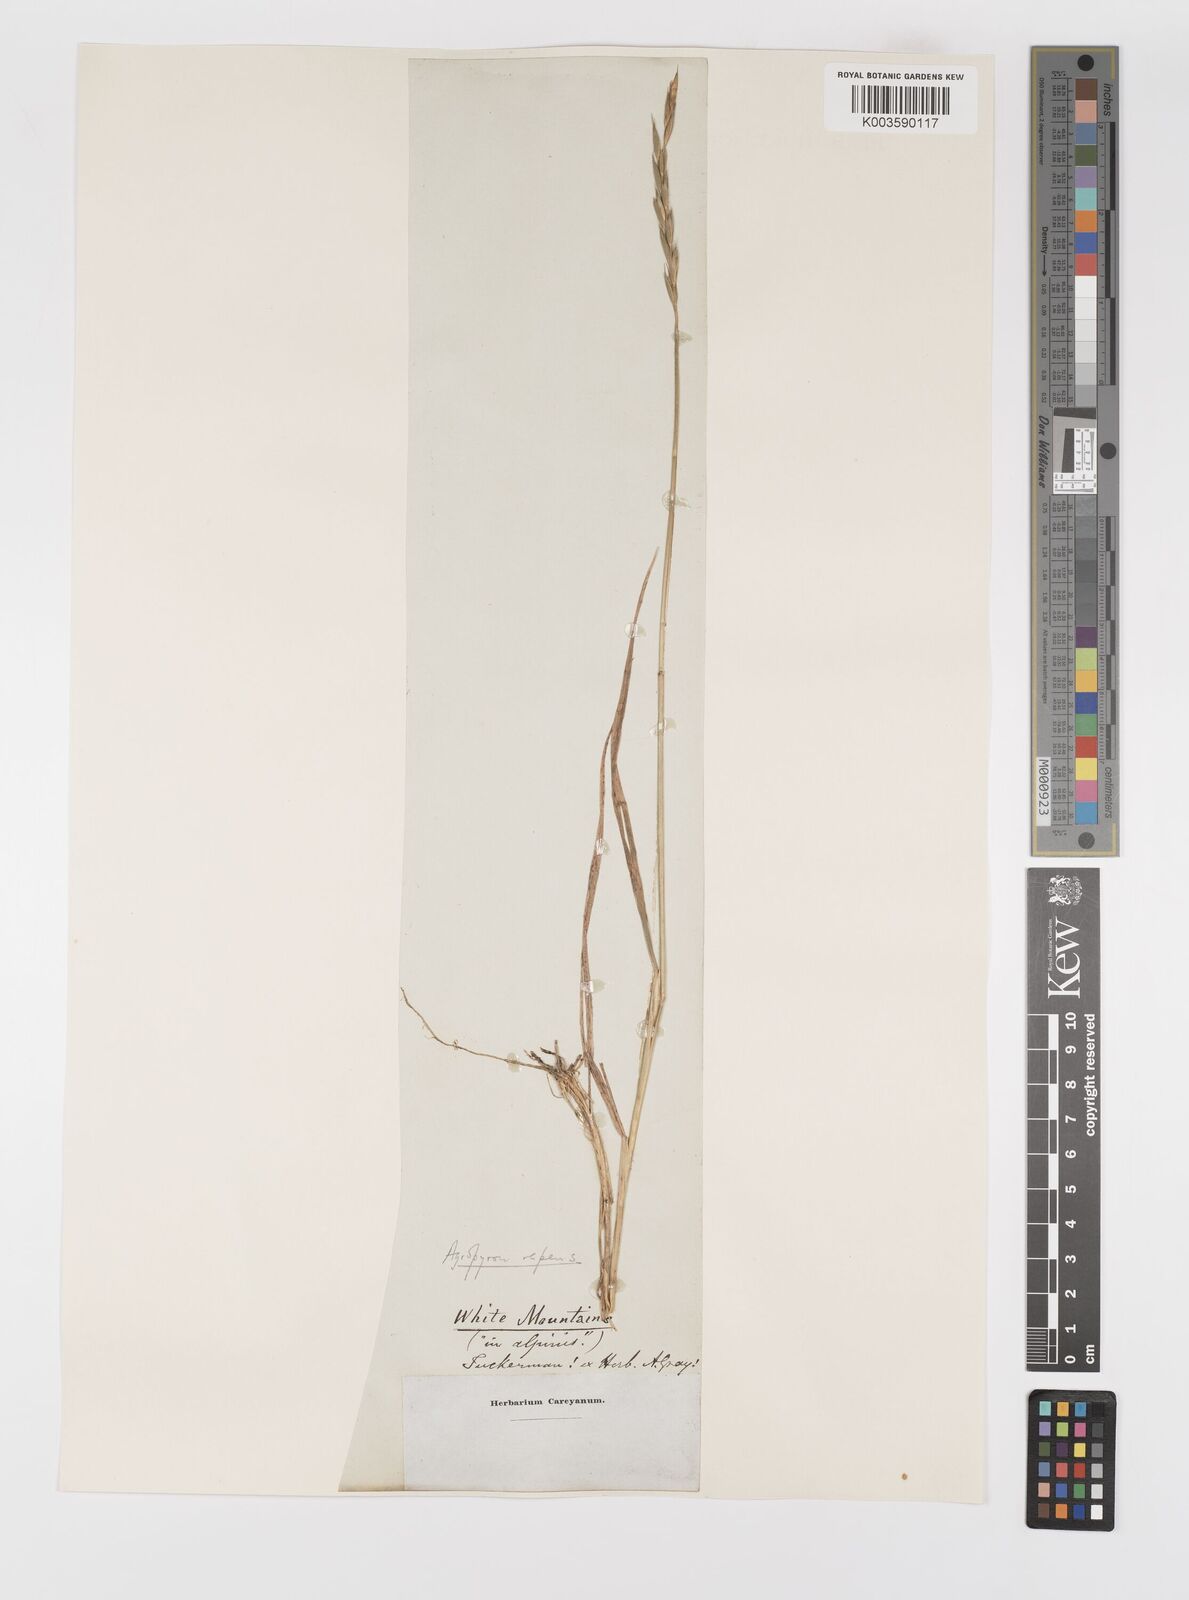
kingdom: Plantae
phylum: Tracheophyta
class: Liliopsida
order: Poales
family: Poaceae
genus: Elymus
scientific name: Elymus repens
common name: Quackgrass
